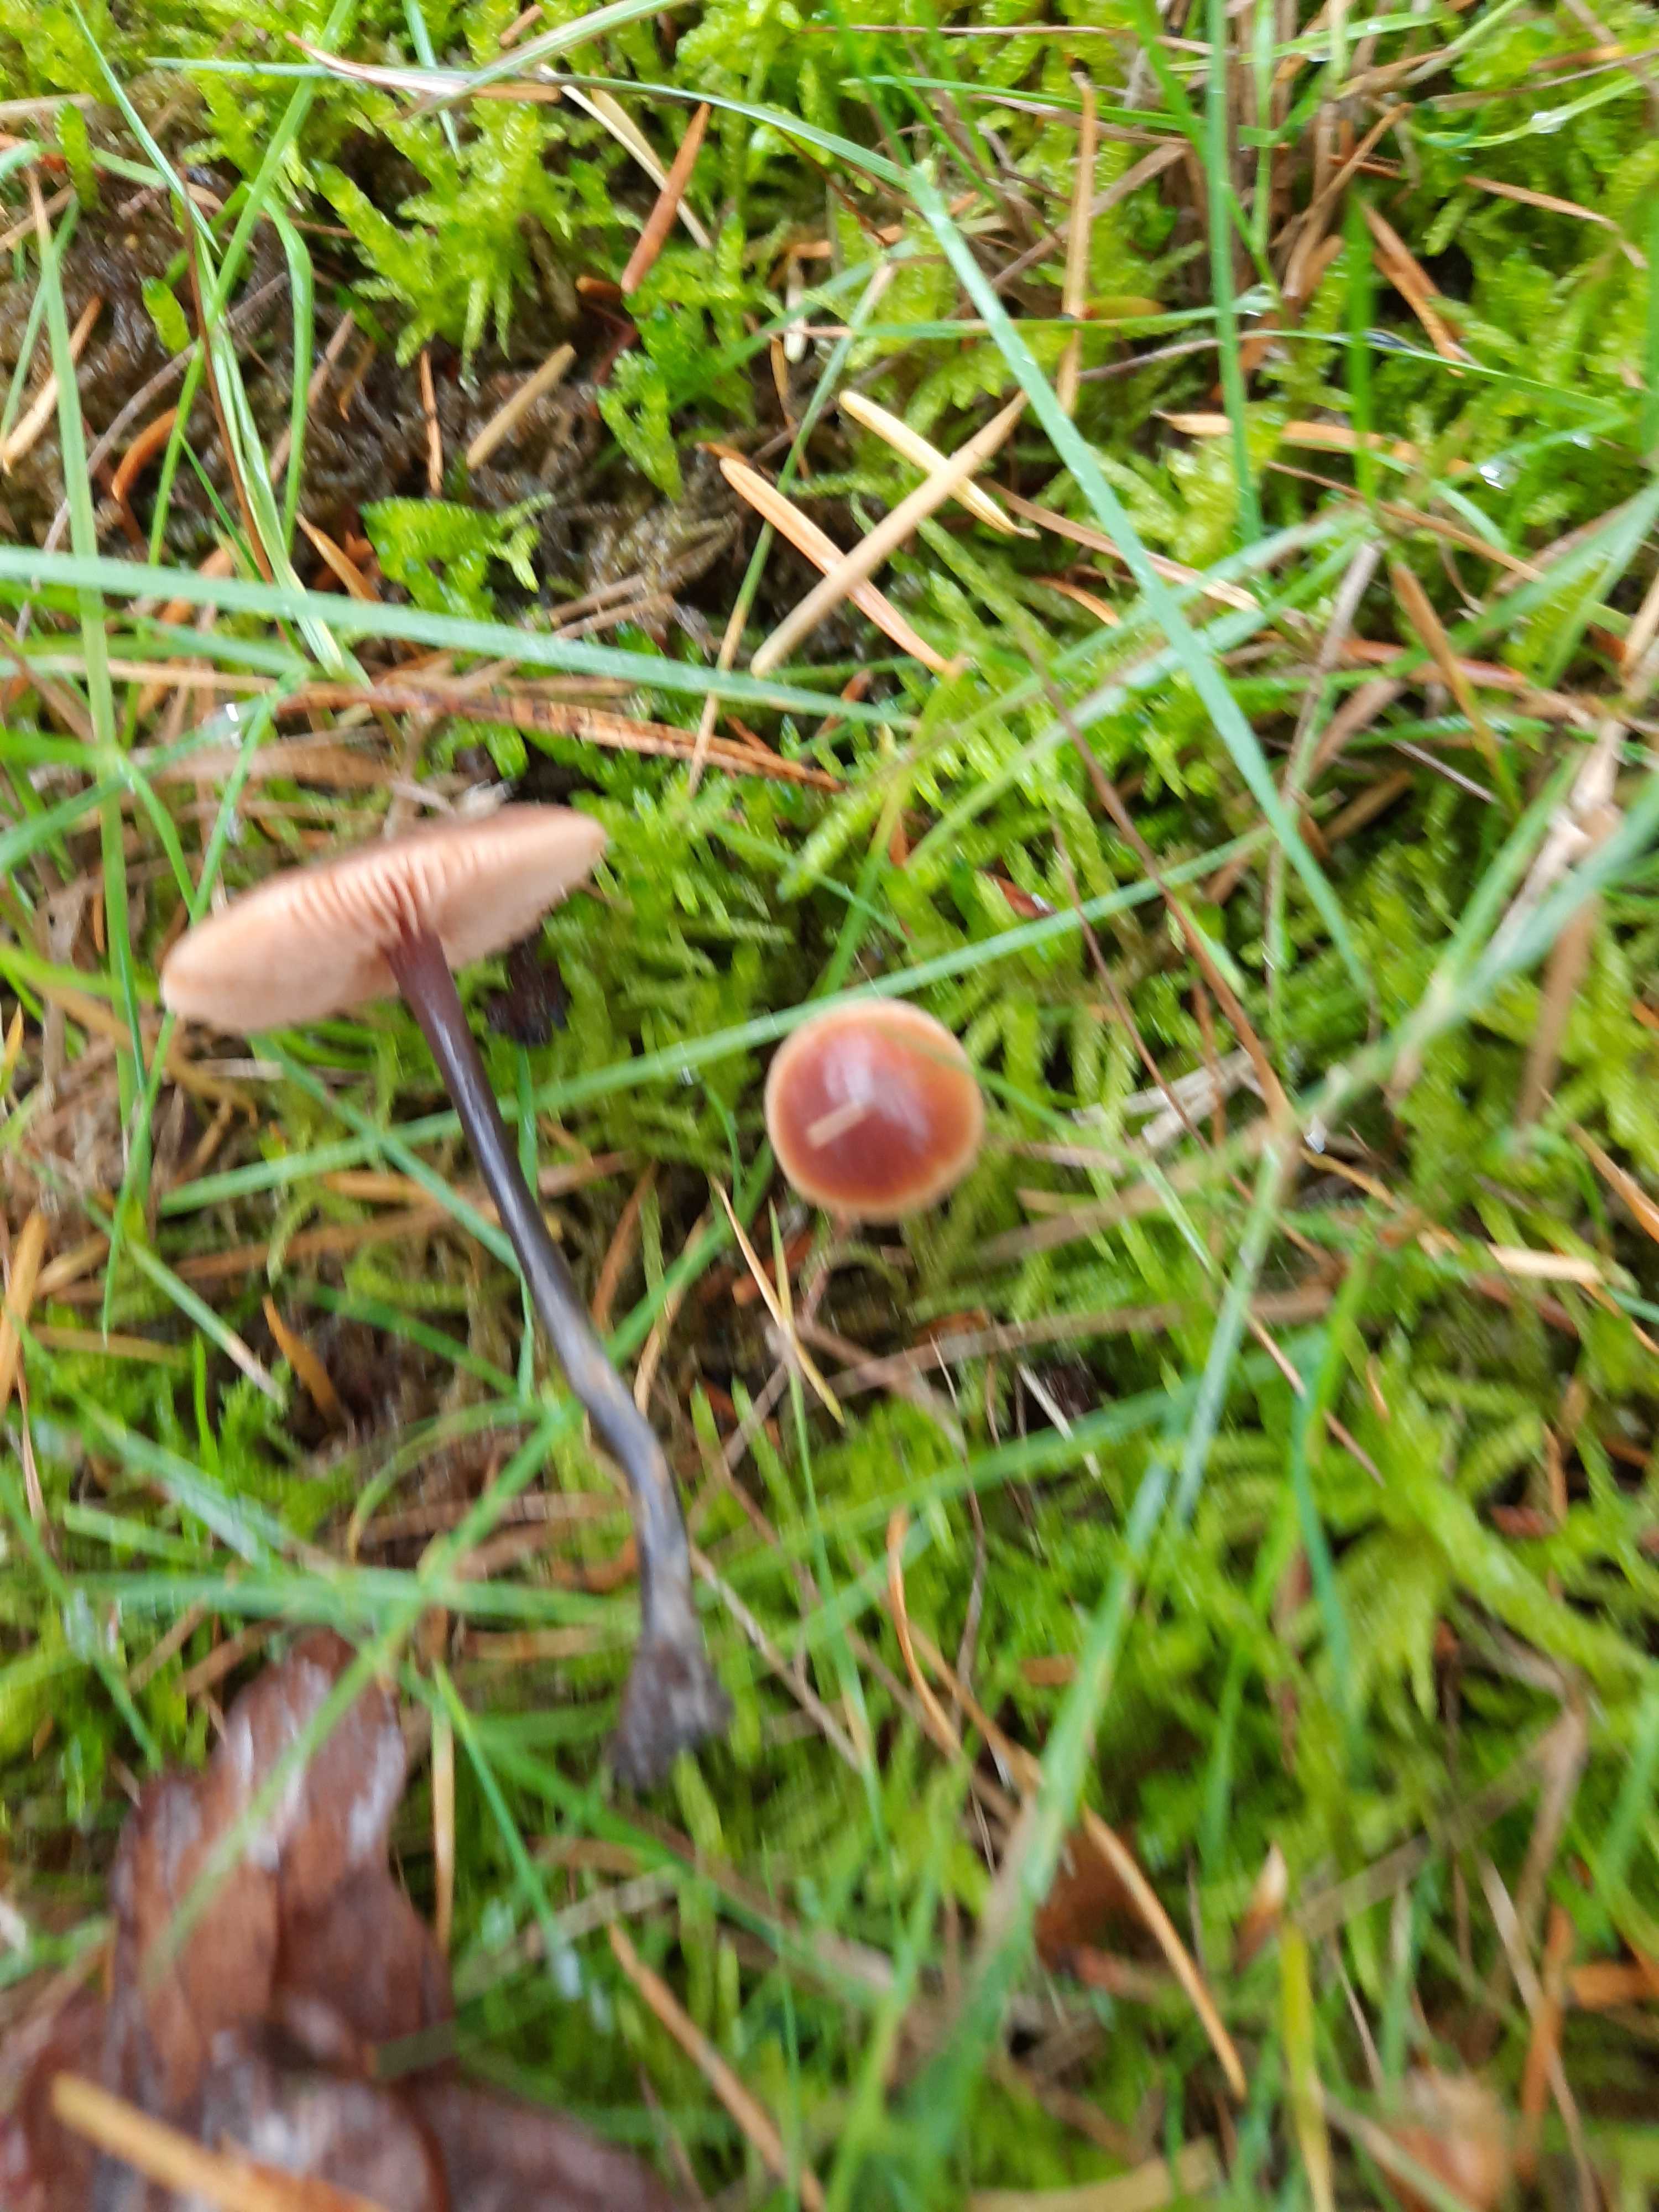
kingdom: Fungi
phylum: Basidiomycota
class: Agaricomycetes
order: Agaricales
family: Macrocystidiaceae
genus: Macrocystidia
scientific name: Macrocystidia cucumis
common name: agurkehat
